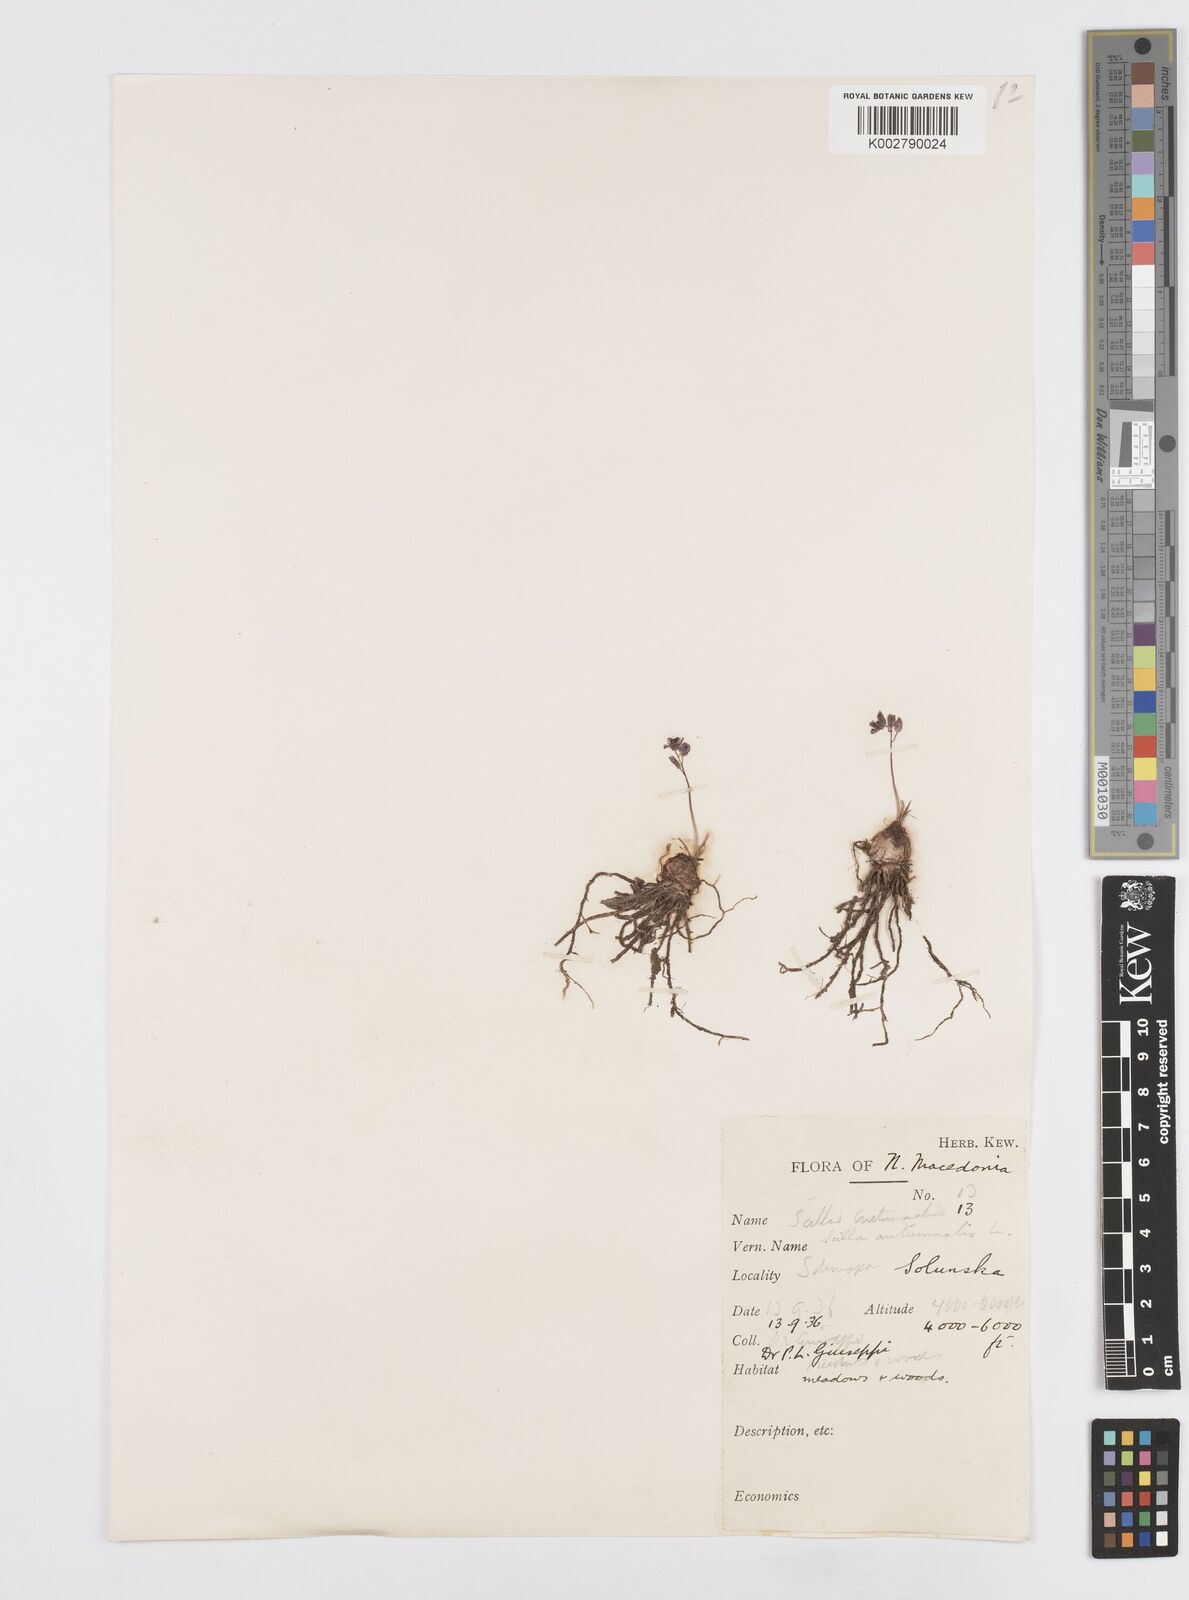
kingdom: Plantae
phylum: Tracheophyta
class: Liliopsida
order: Asparagales
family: Asparagaceae
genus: Prospero
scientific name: Prospero autumnale
